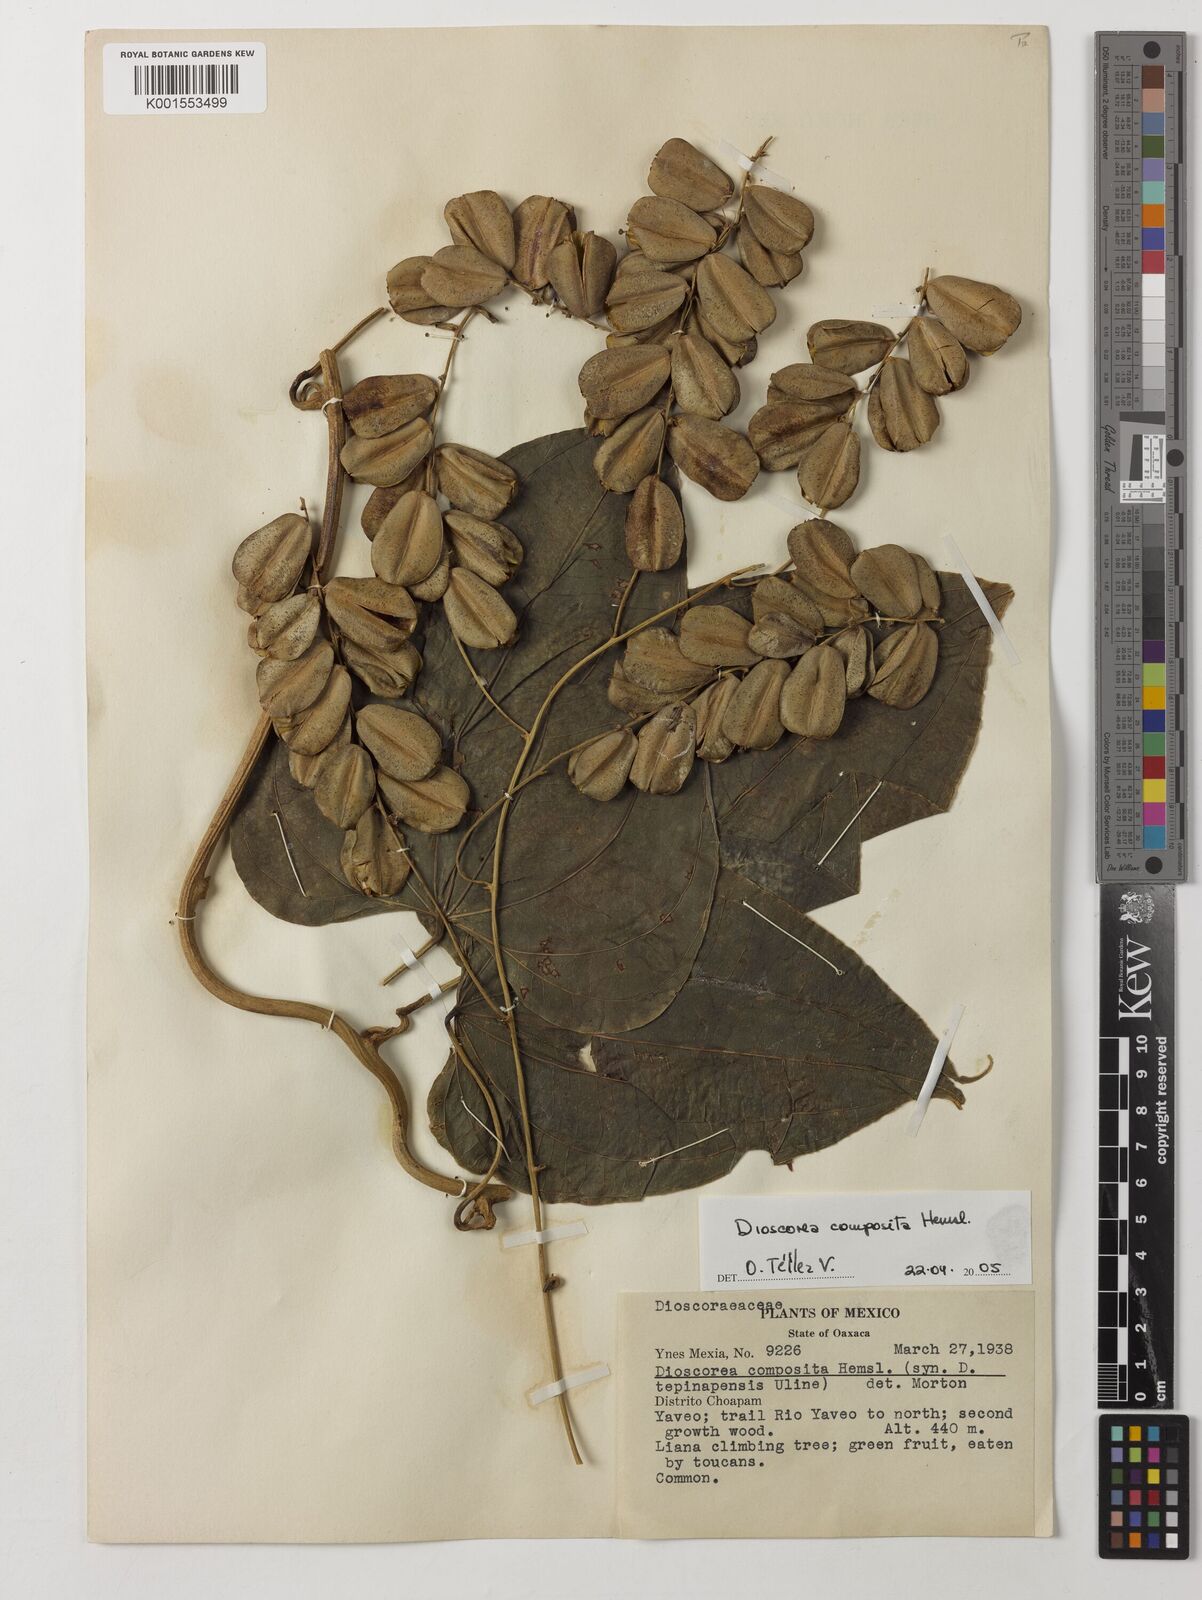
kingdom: Plantae
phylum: Tracheophyta
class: Liliopsida
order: Dioscoreales
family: Dioscoreaceae
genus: Dioscorea
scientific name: Dioscorea composita
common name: Barbasco
